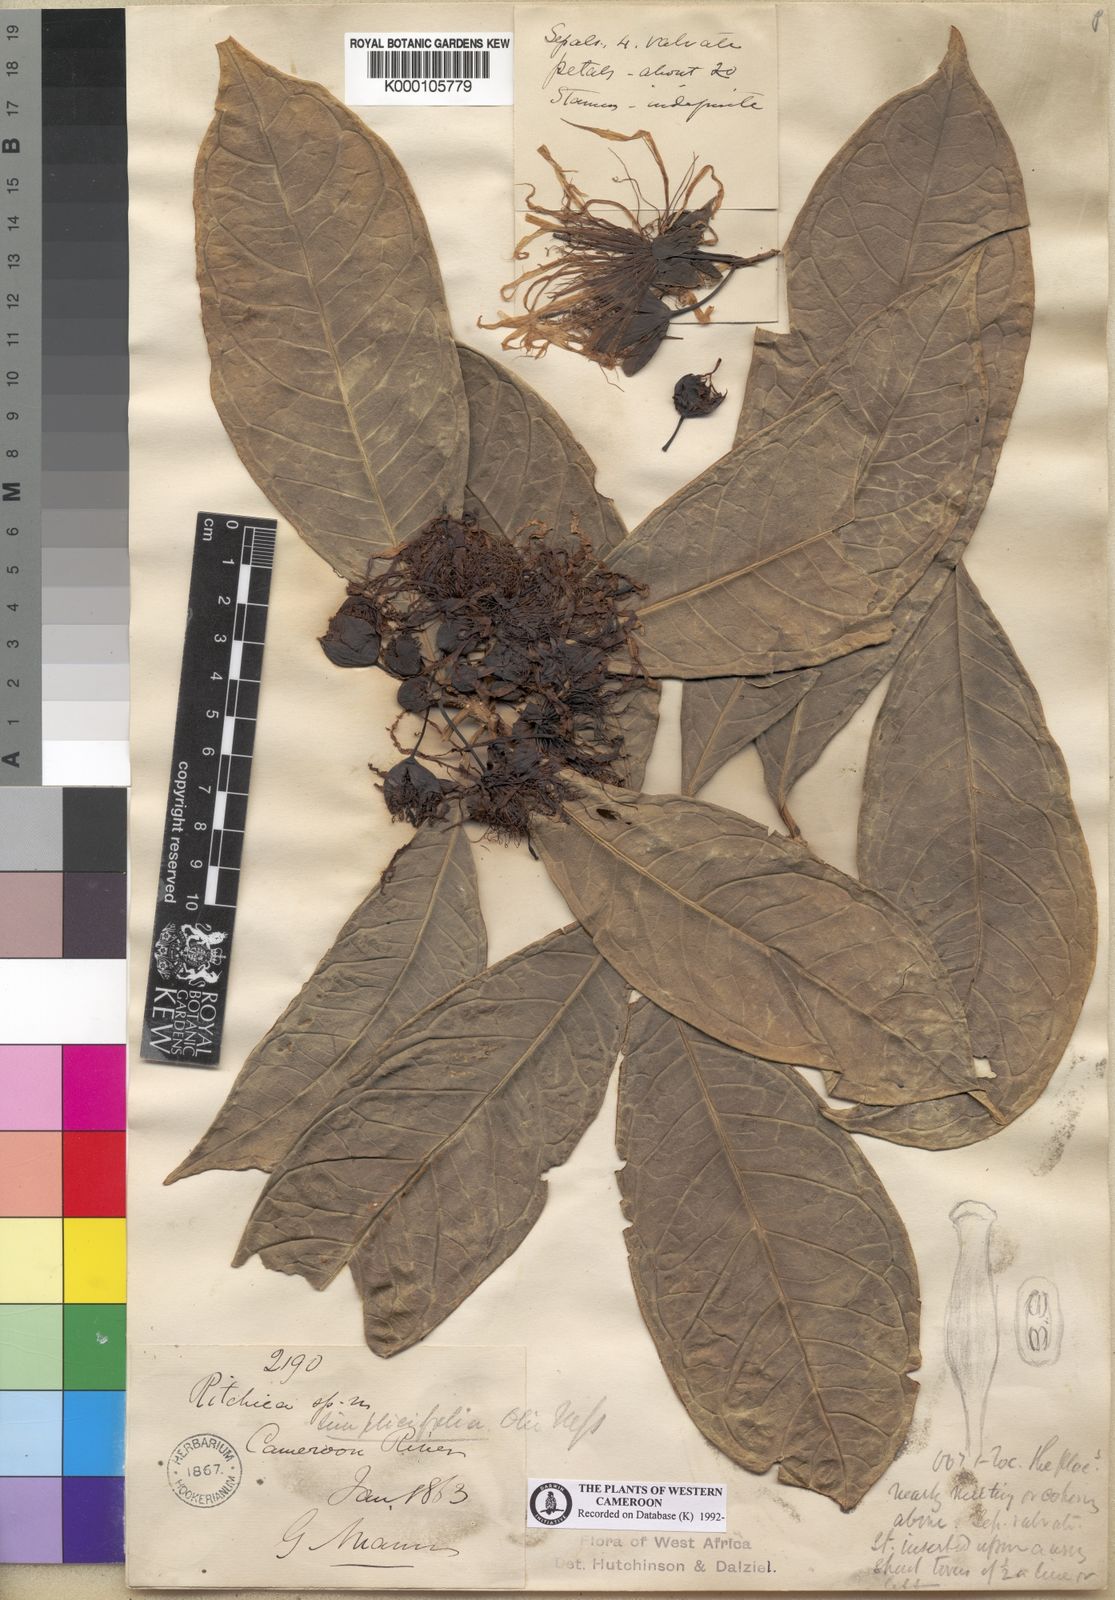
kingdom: Plantae
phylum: Tracheophyta
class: Magnoliopsida
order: Brassicales
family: Capparaceae
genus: Ritchiea
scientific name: Ritchiea simplicifolia
